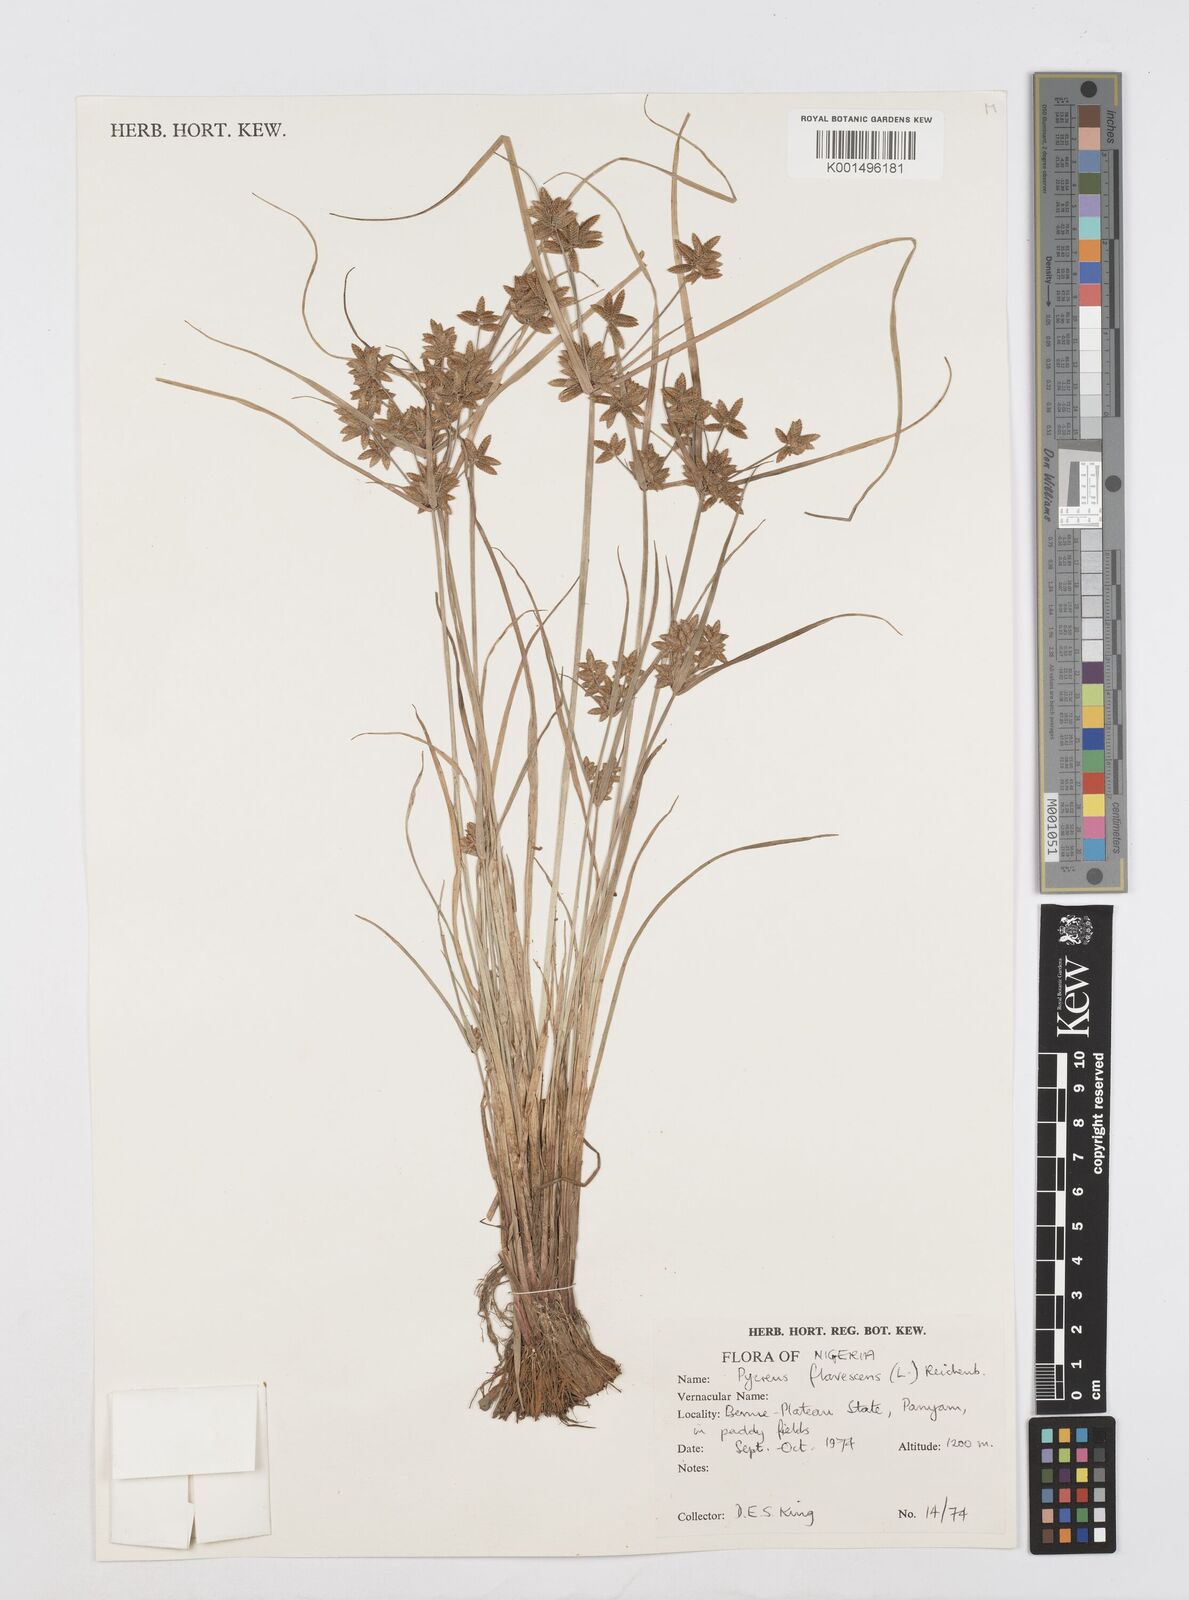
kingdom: Plantae
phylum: Tracheophyta
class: Liliopsida
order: Poales
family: Cyperaceae
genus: Cyperus
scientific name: Cyperus flavescens
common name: Yellow galingale
